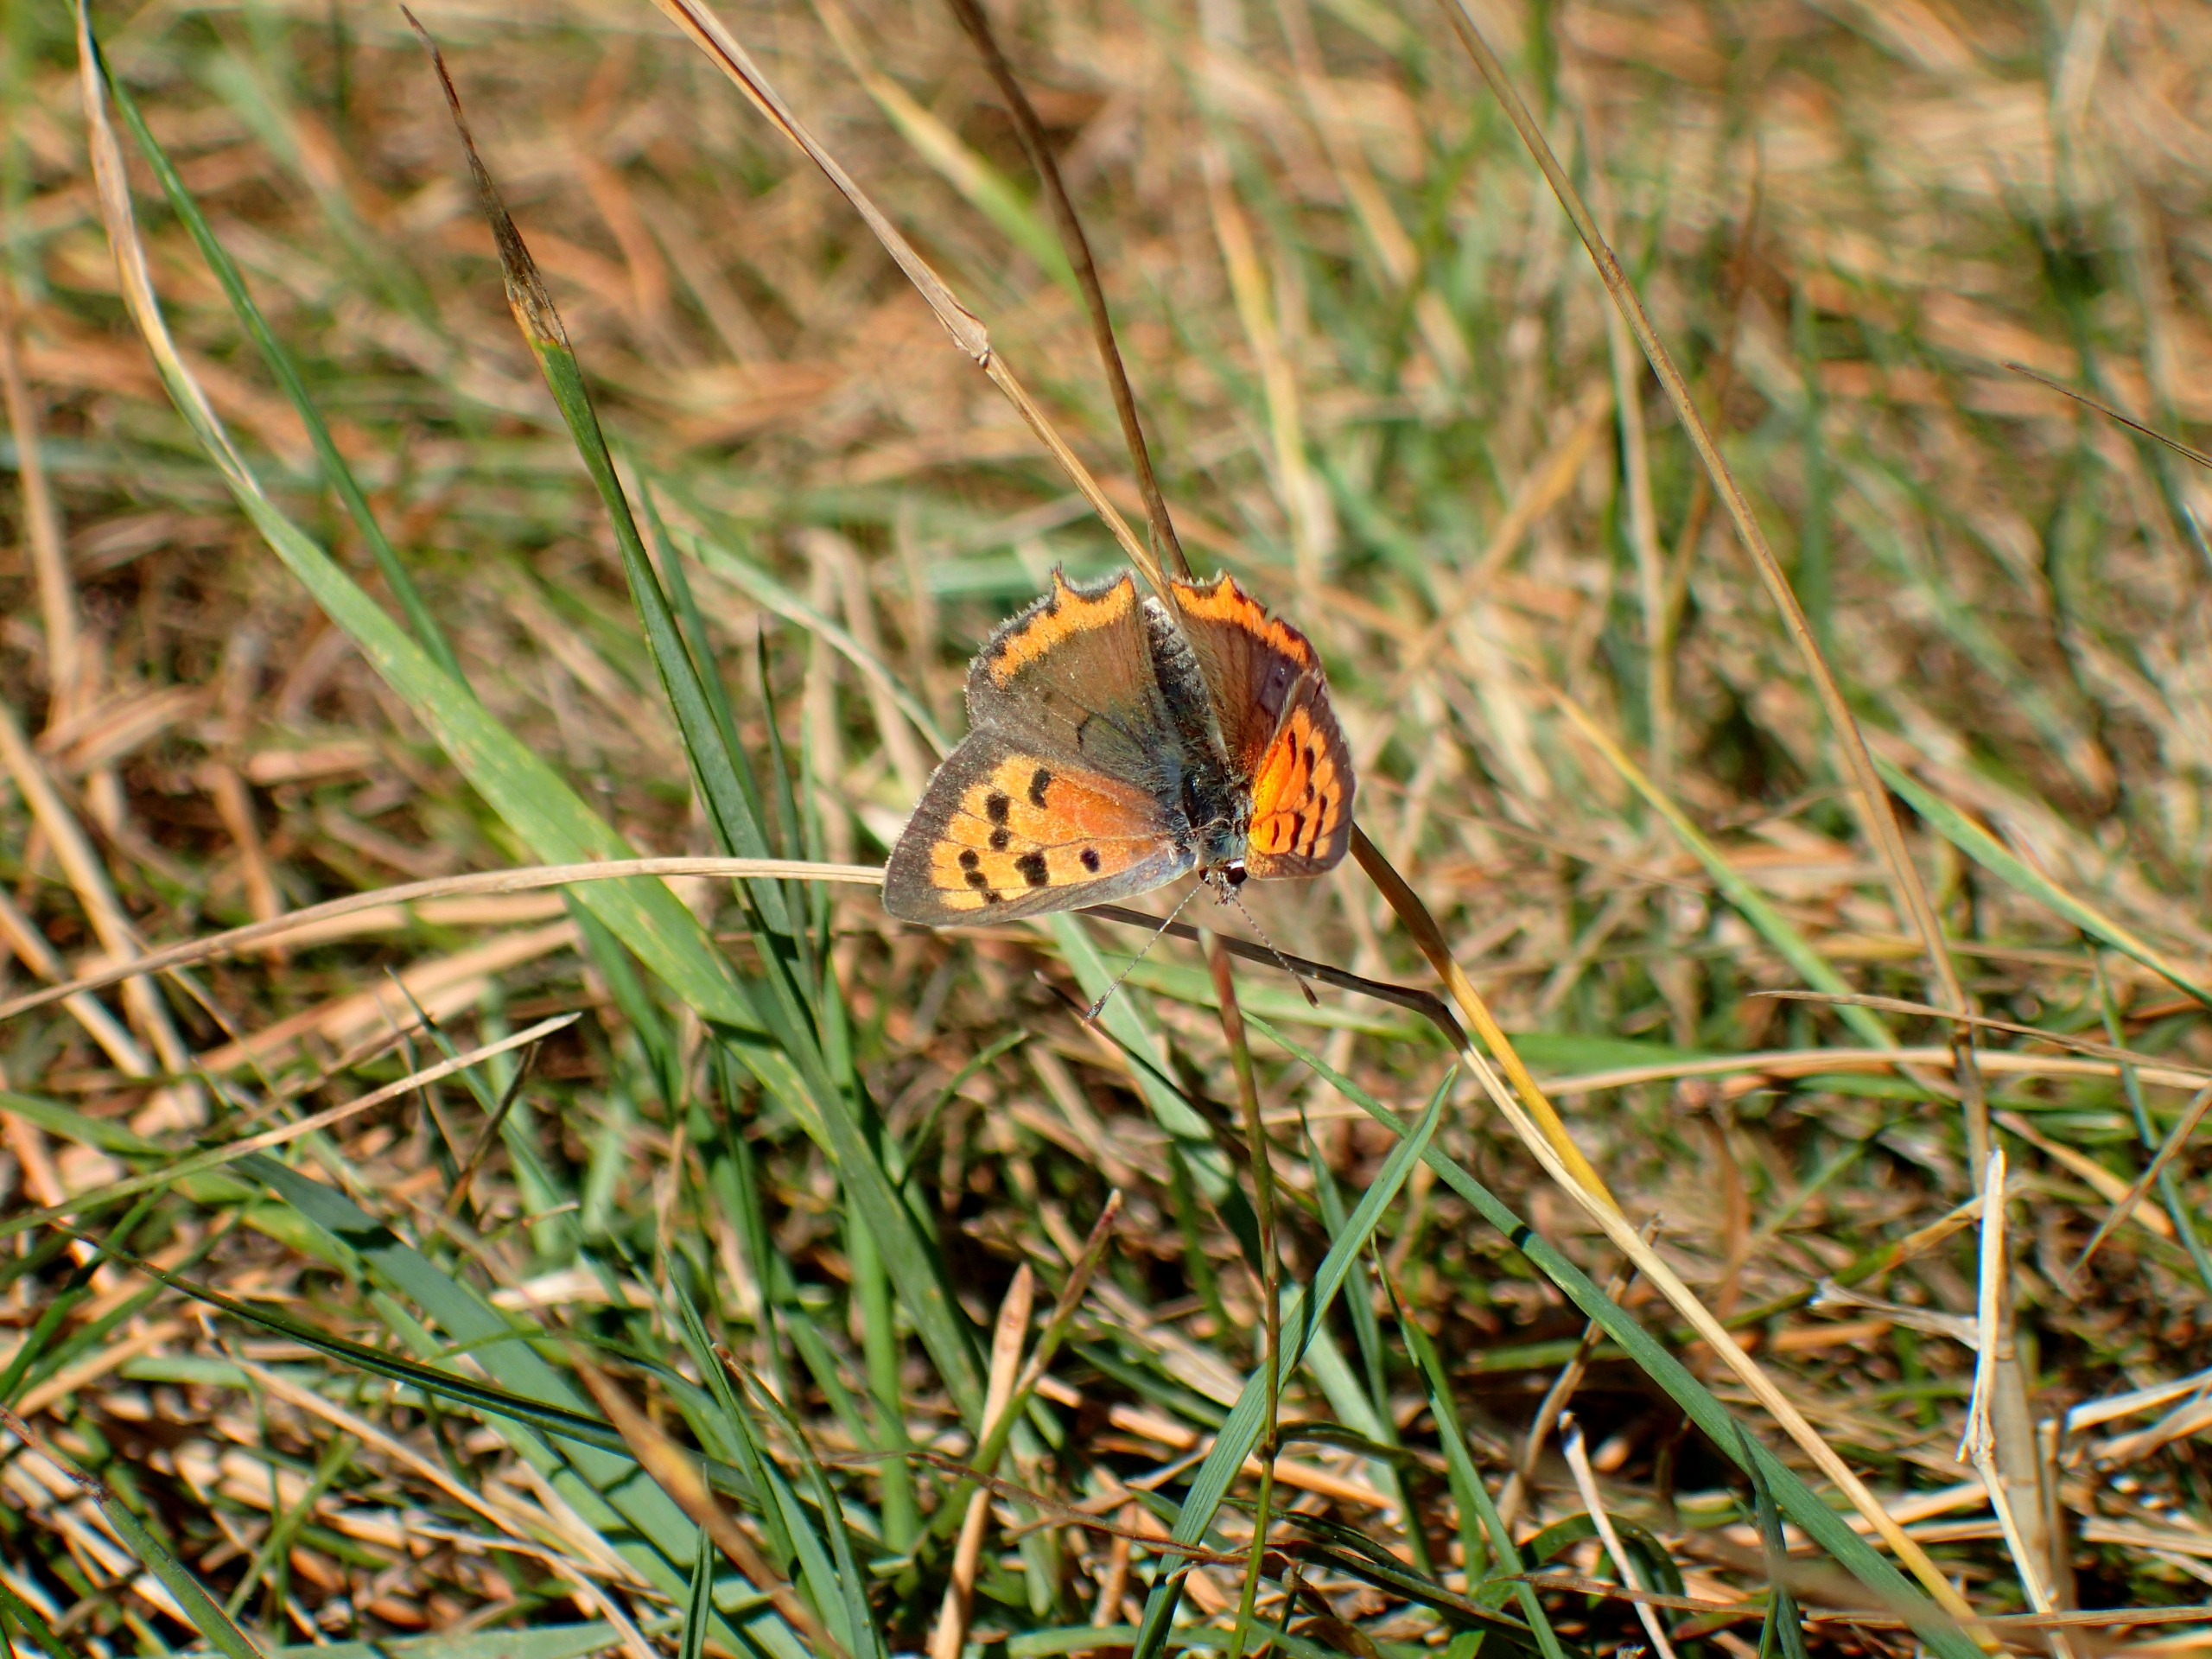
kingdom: Animalia
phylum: Arthropoda
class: Insecta
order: Lepidoptera
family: Lycaenidae
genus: Lycaena
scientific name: Lycaena phlaeas
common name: Lille ildfugl
